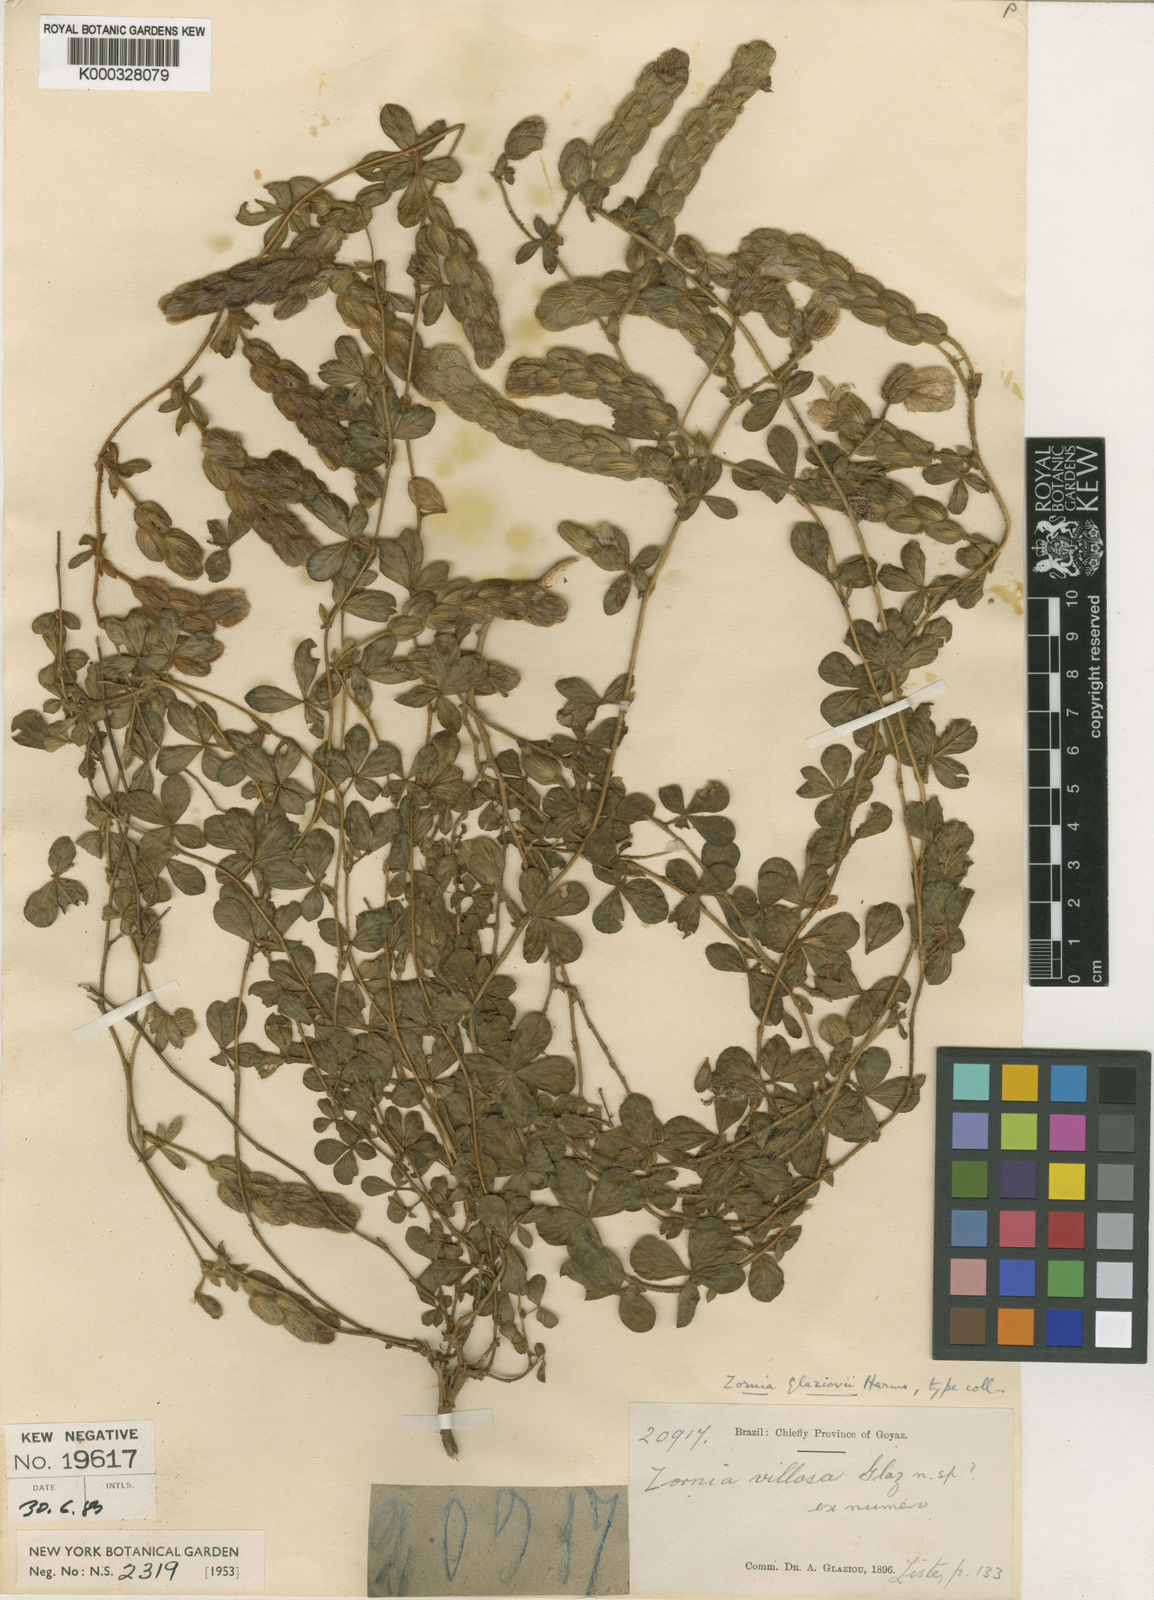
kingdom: Plantae
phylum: Tracheophyta
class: Magnoliopsida
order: Fabales
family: Fabaceae
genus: Zornia
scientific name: Zornia glaziovii
